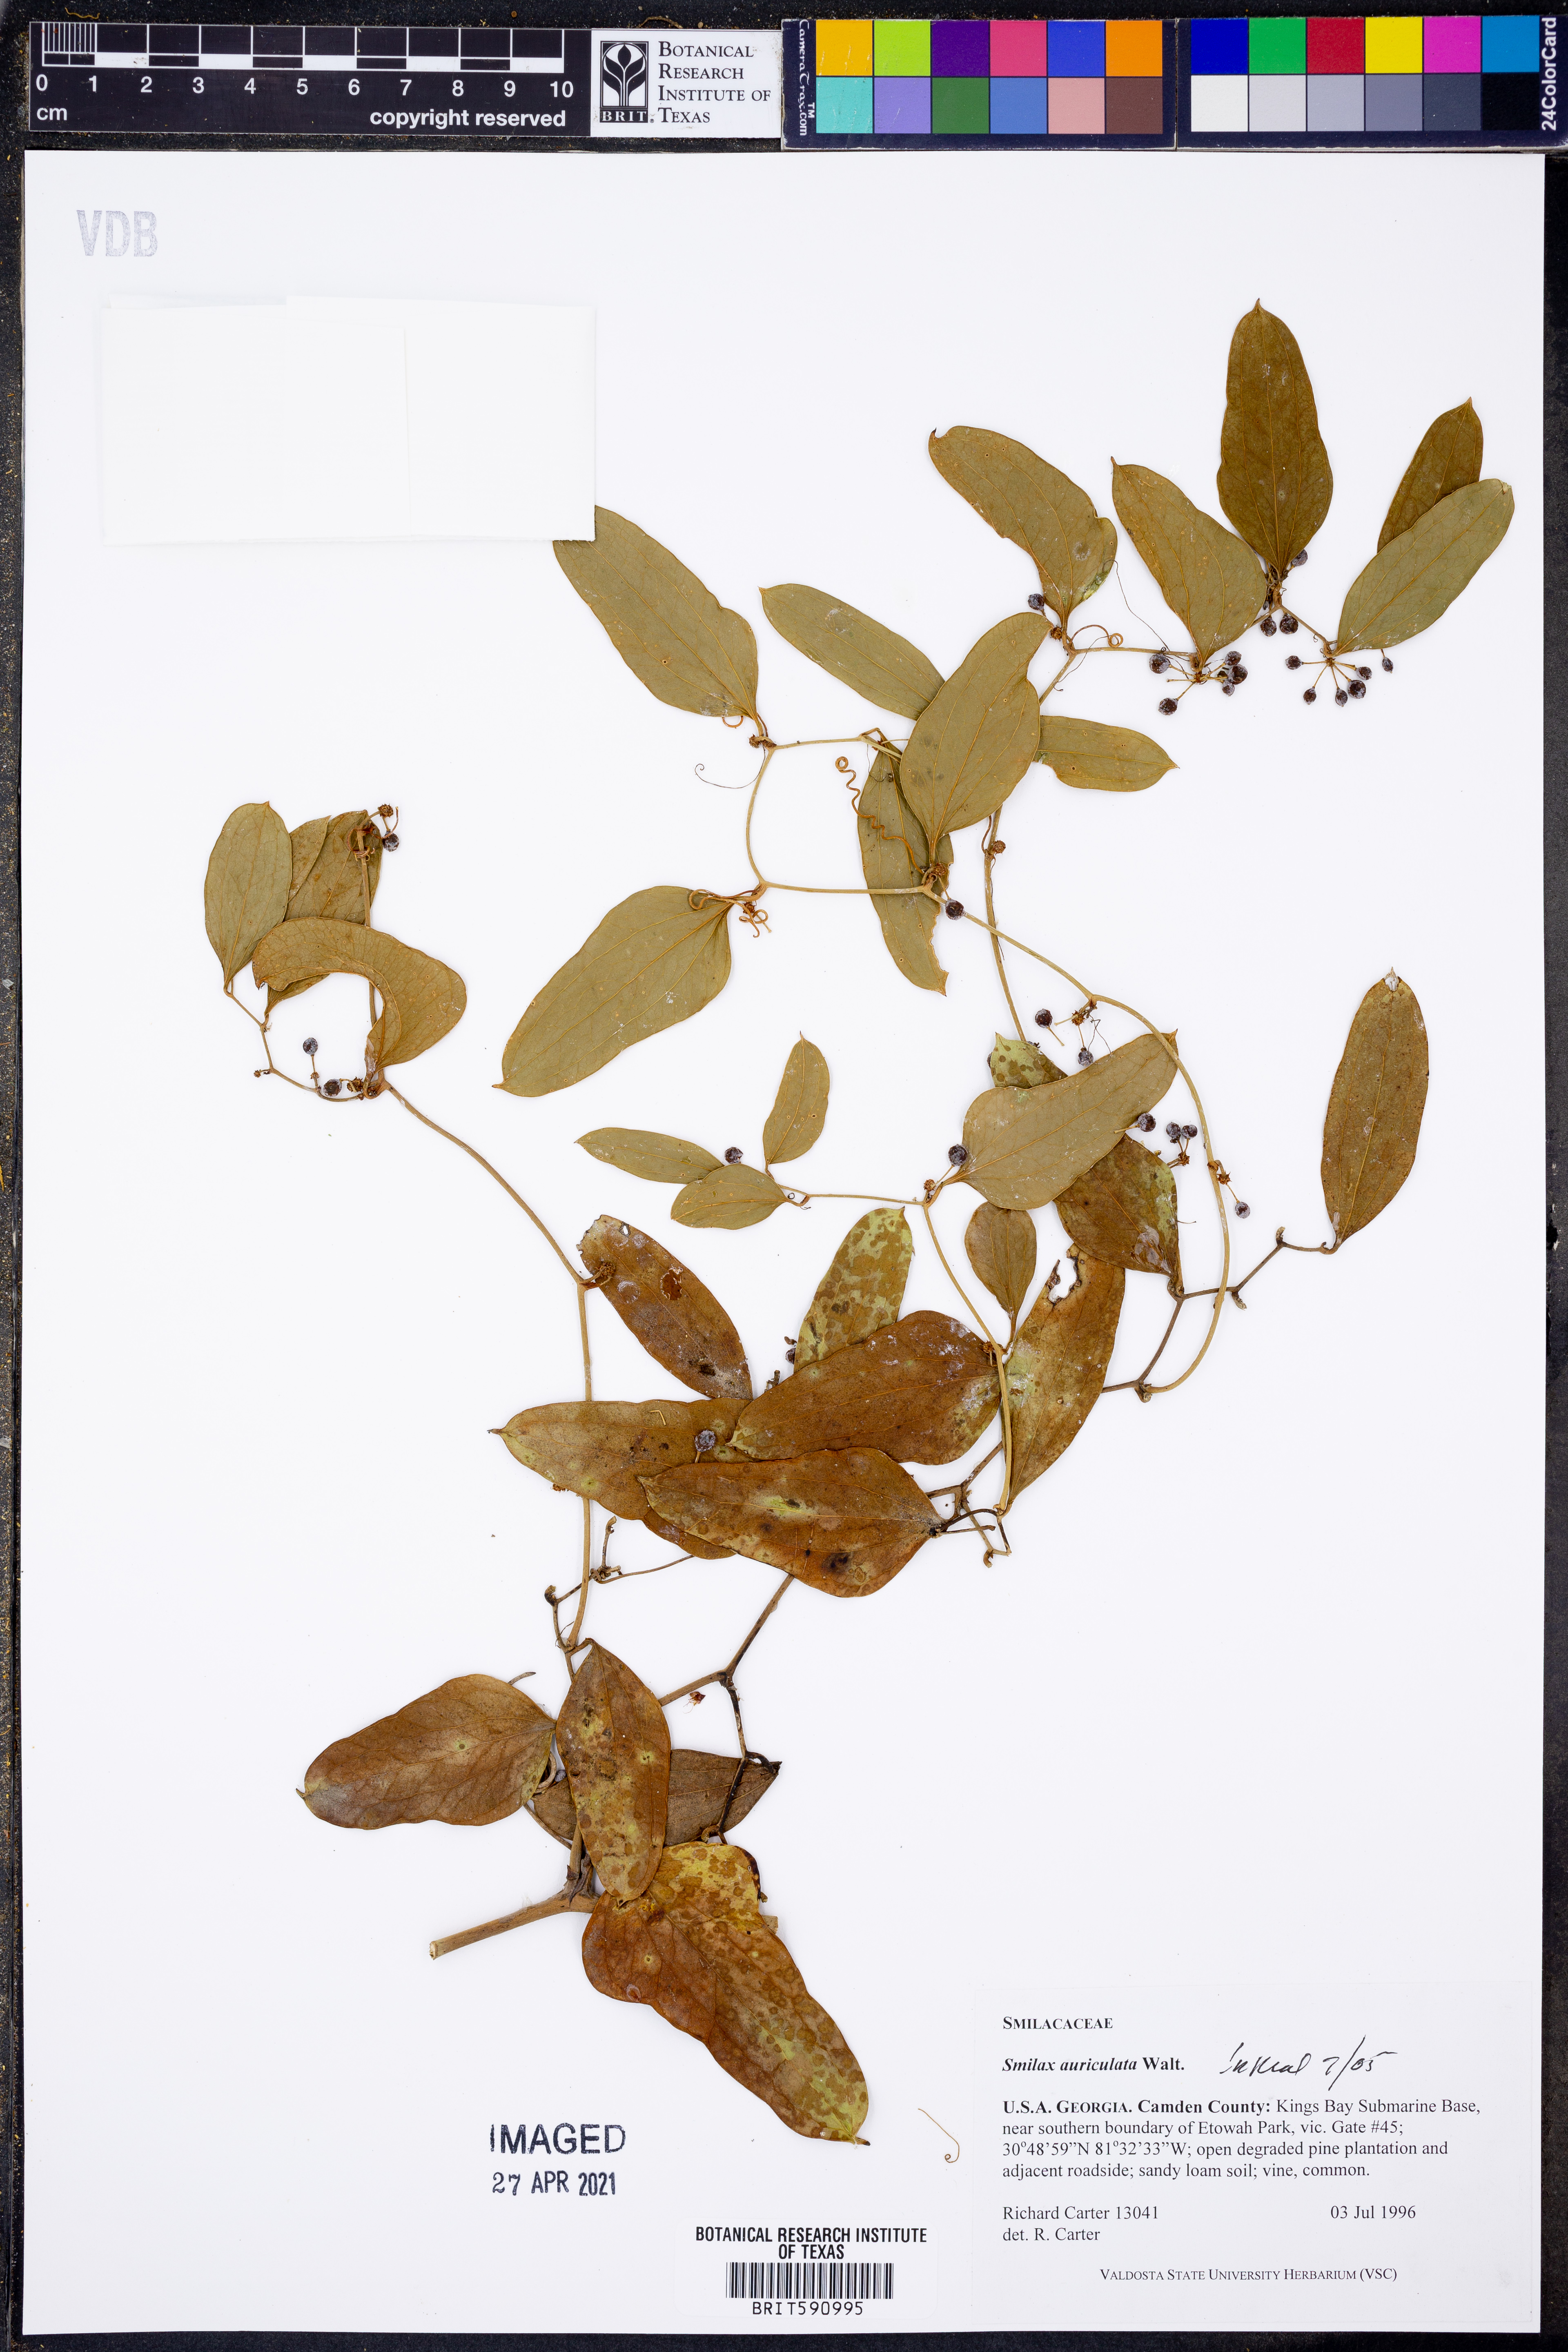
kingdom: Plantae
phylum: Tracheophyta
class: Liliopsida
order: Liliales
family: Smilacaceae
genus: Smilax
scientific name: Smilax auriculata
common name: Wild bamboo
